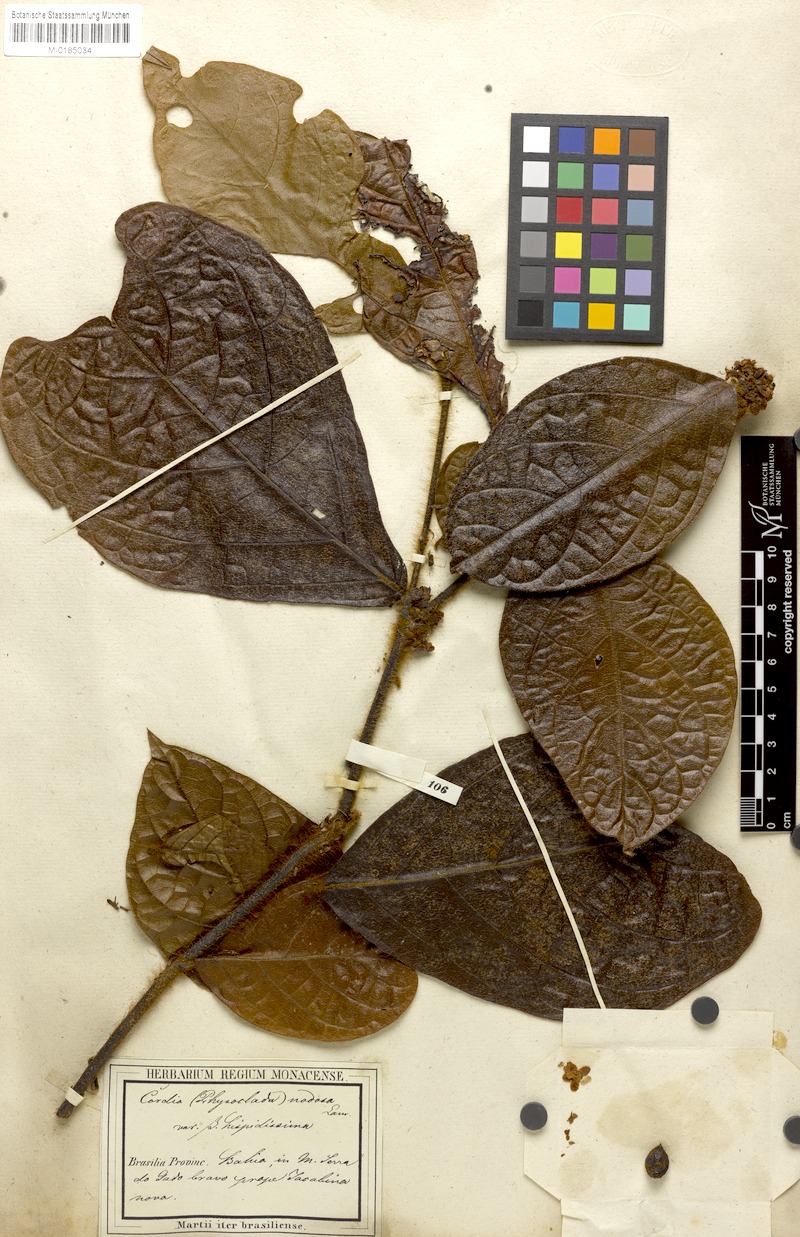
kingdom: Plantae
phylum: Tracheophyta
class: Magnoliopsida
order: Boraginales
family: Cordiaceae
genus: Cordia
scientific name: Cordia nodosa
